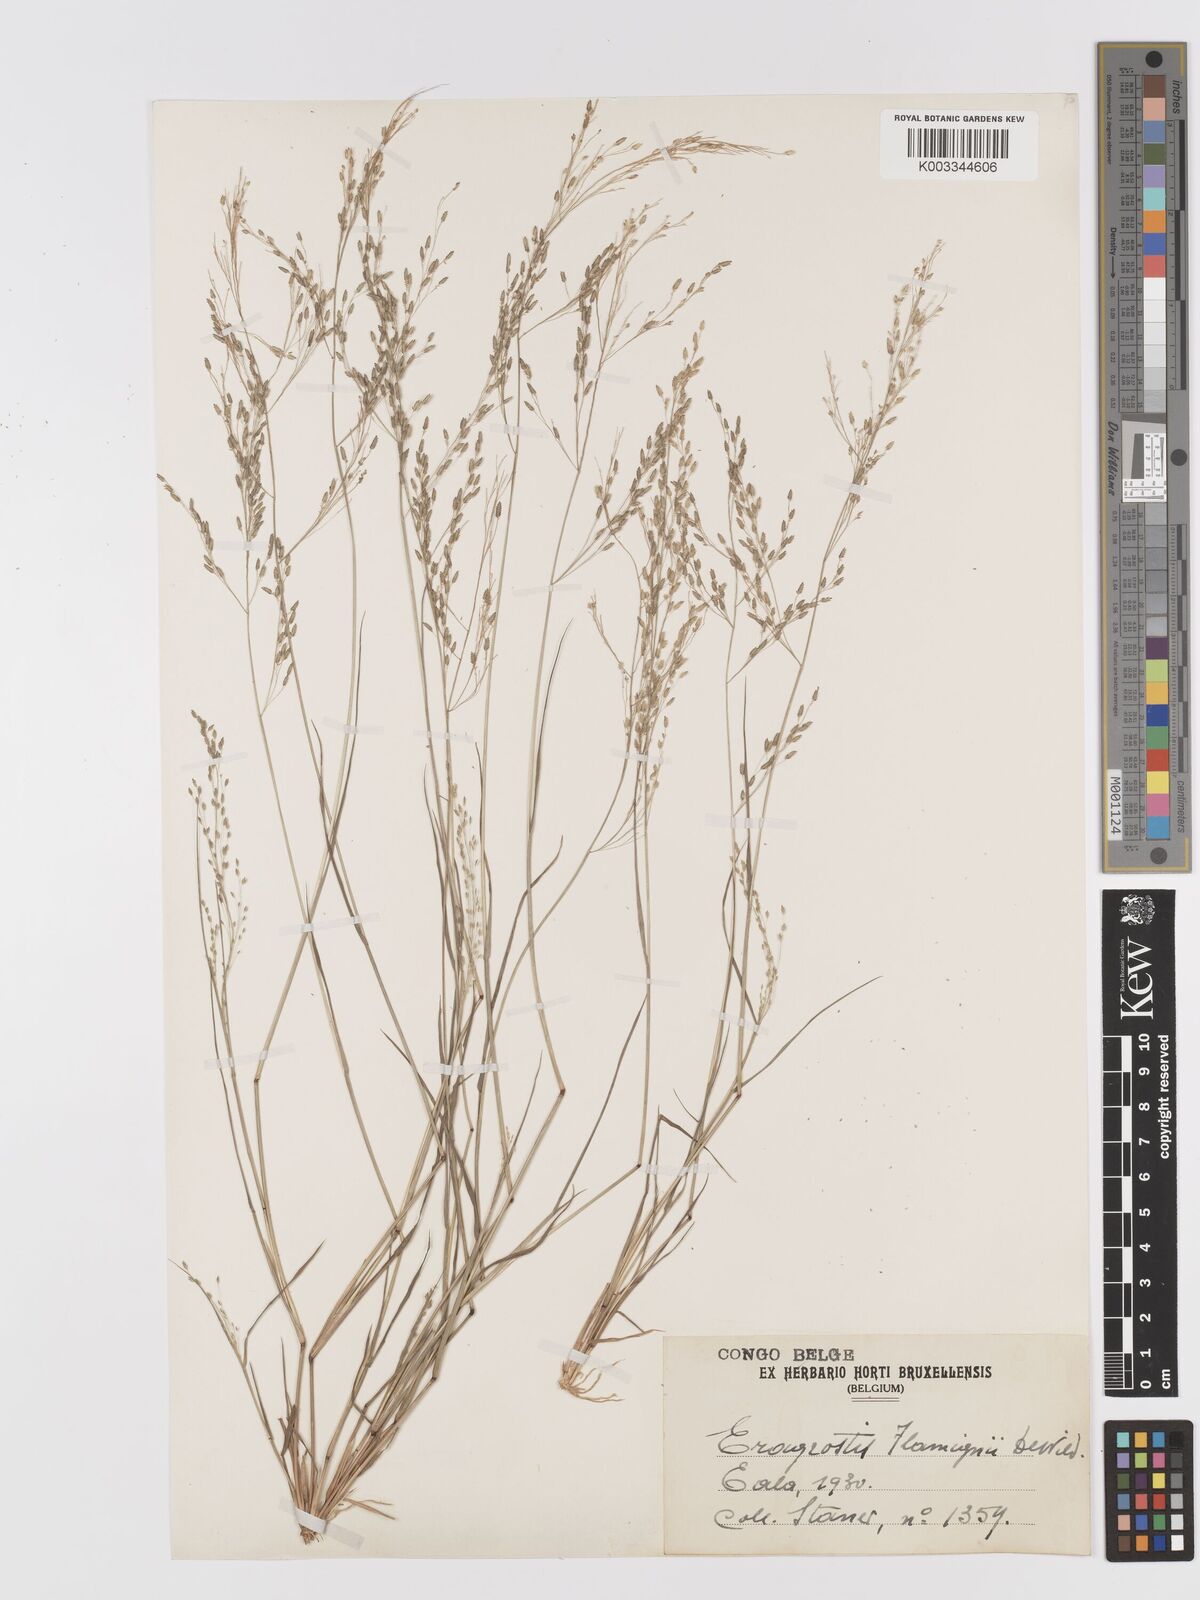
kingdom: Plantae
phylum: Tracheophyta
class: Liliopsida
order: Poales
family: Poaceae
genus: Eragrostis
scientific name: Eragrostis gangetica
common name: Slimflower lovegrass
